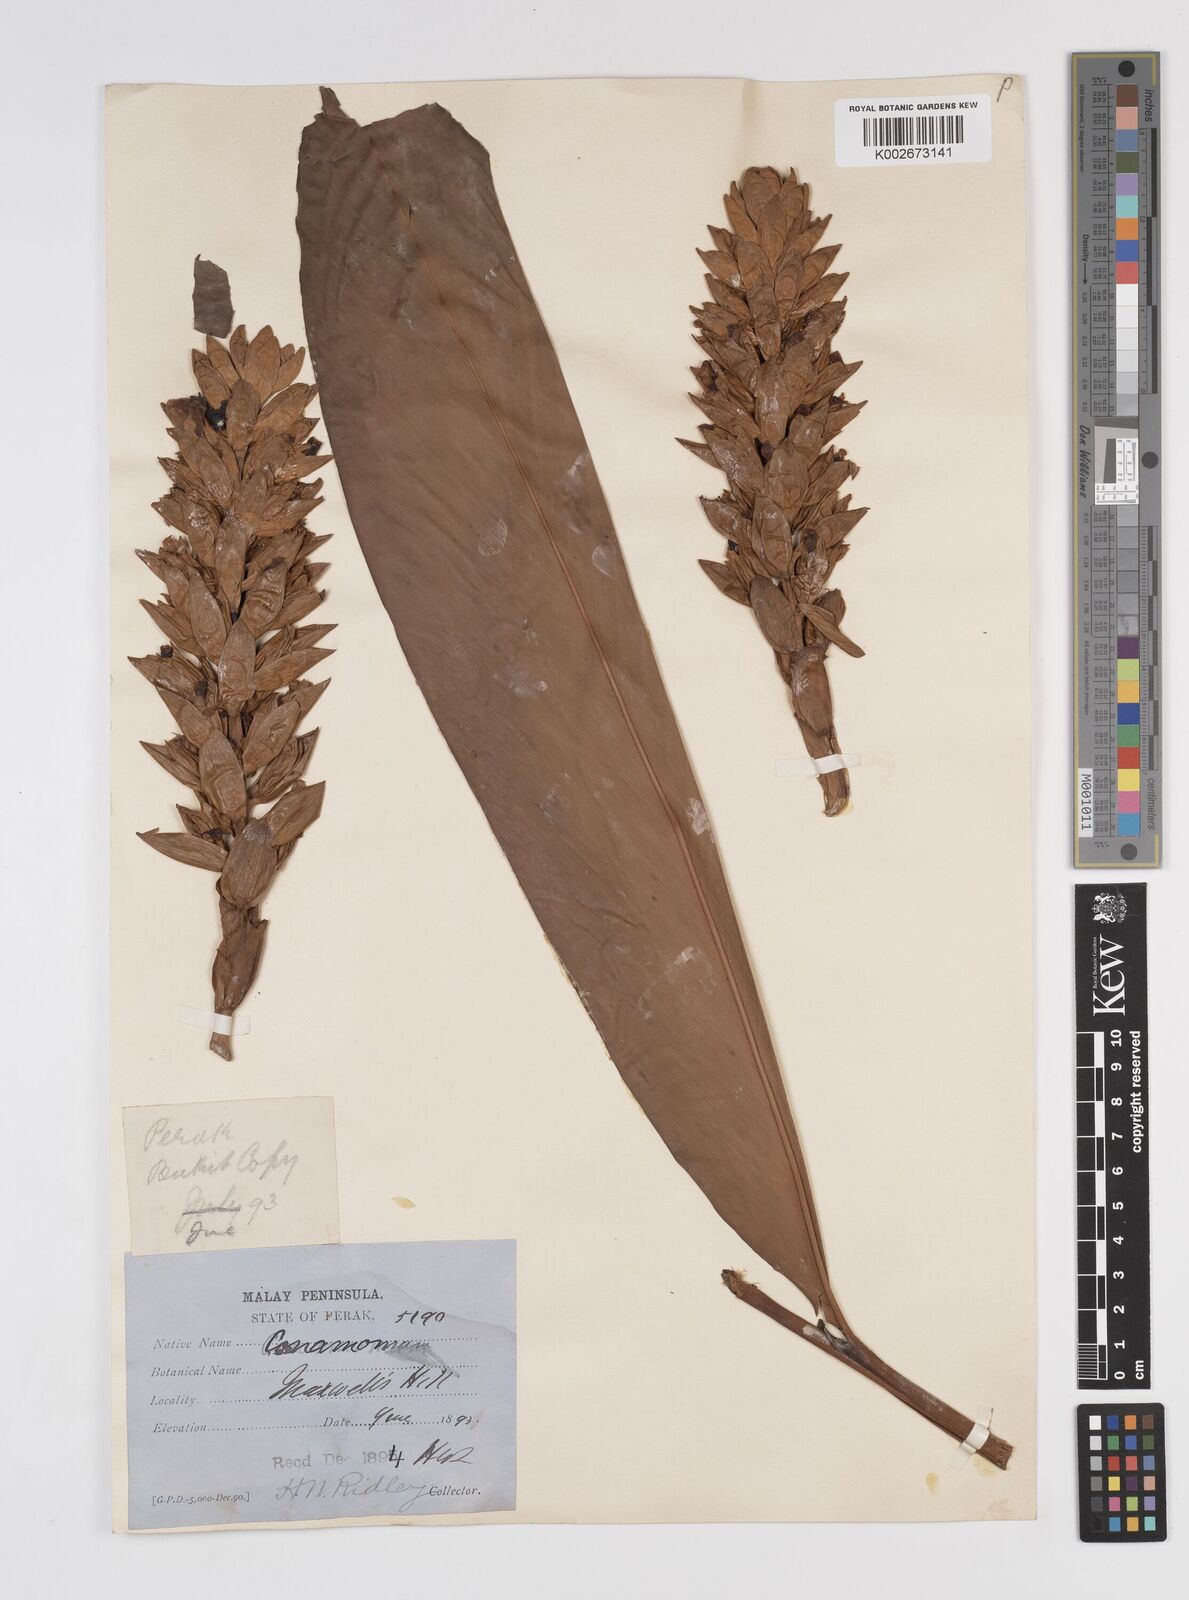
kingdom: Plantae
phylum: Tracheophyta
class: Liliopsida
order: Zingiberales
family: Zingiberaceae
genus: Conamomum
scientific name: Conamomum citrinum
